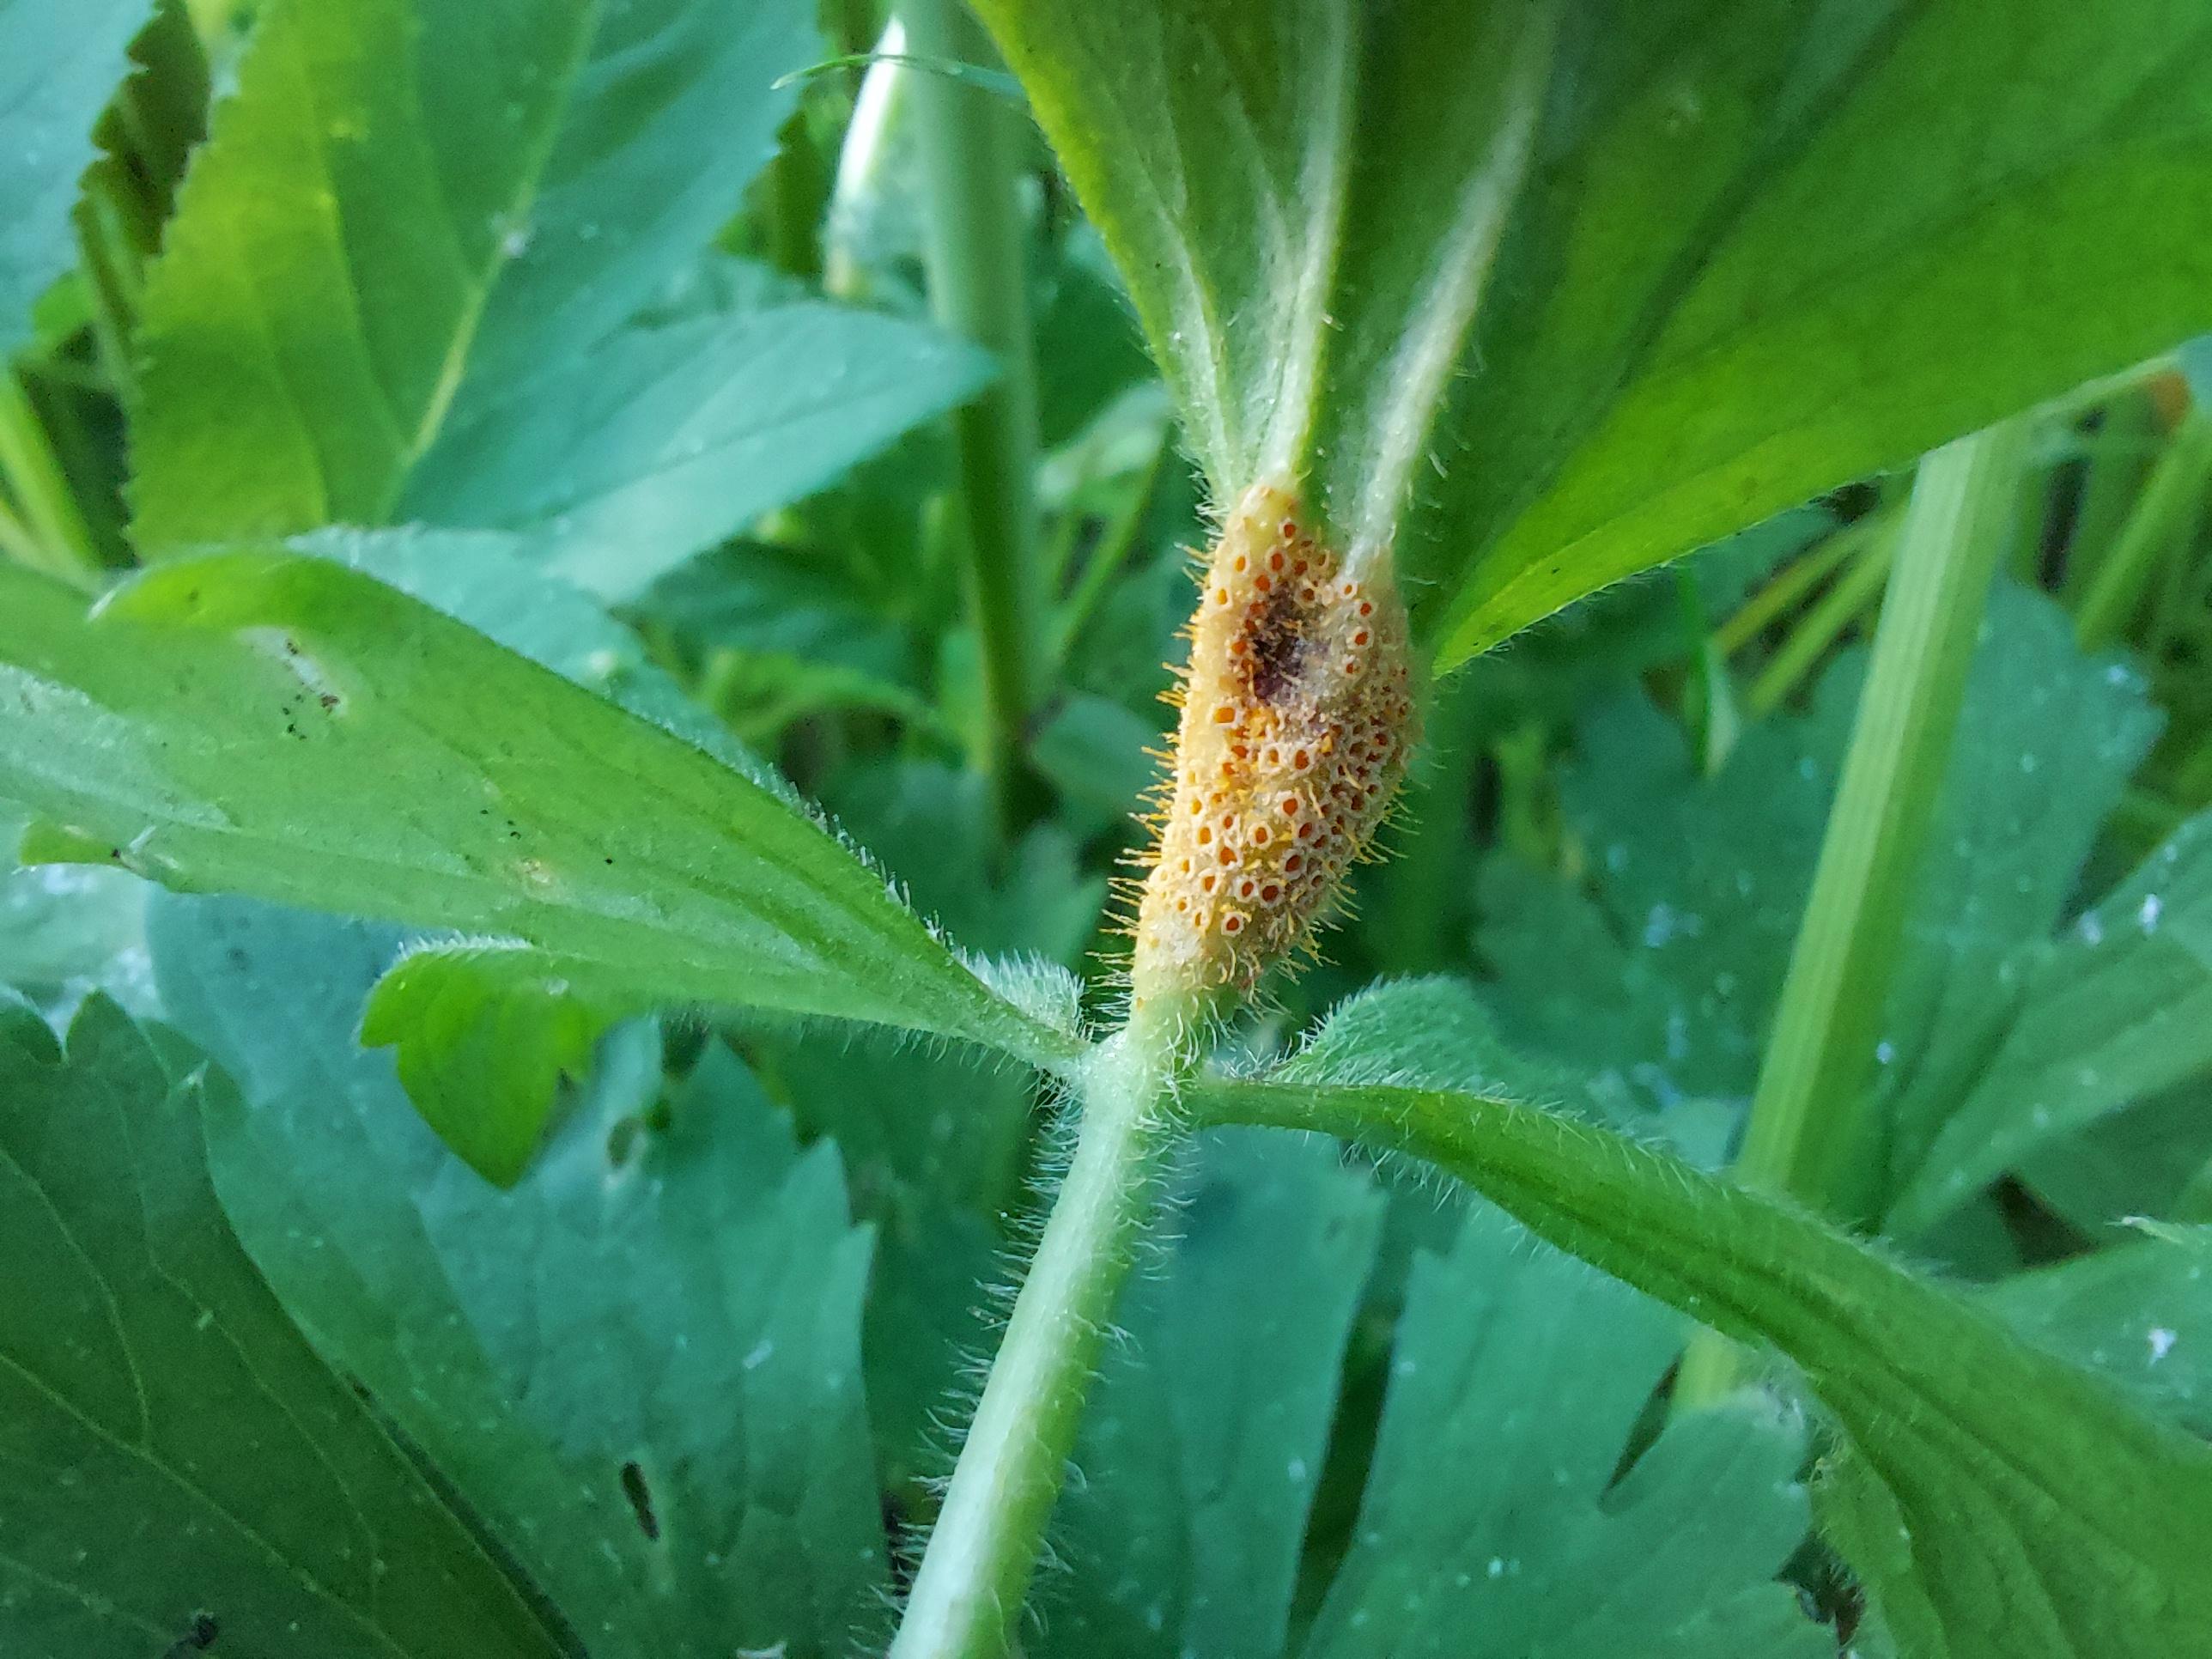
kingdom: Fungi
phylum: Basidiomycota
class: Pucciniomycetes
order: Pucciniales
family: Pucciniaceae
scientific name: Pucciniaceae
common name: rustsvampfamilien
